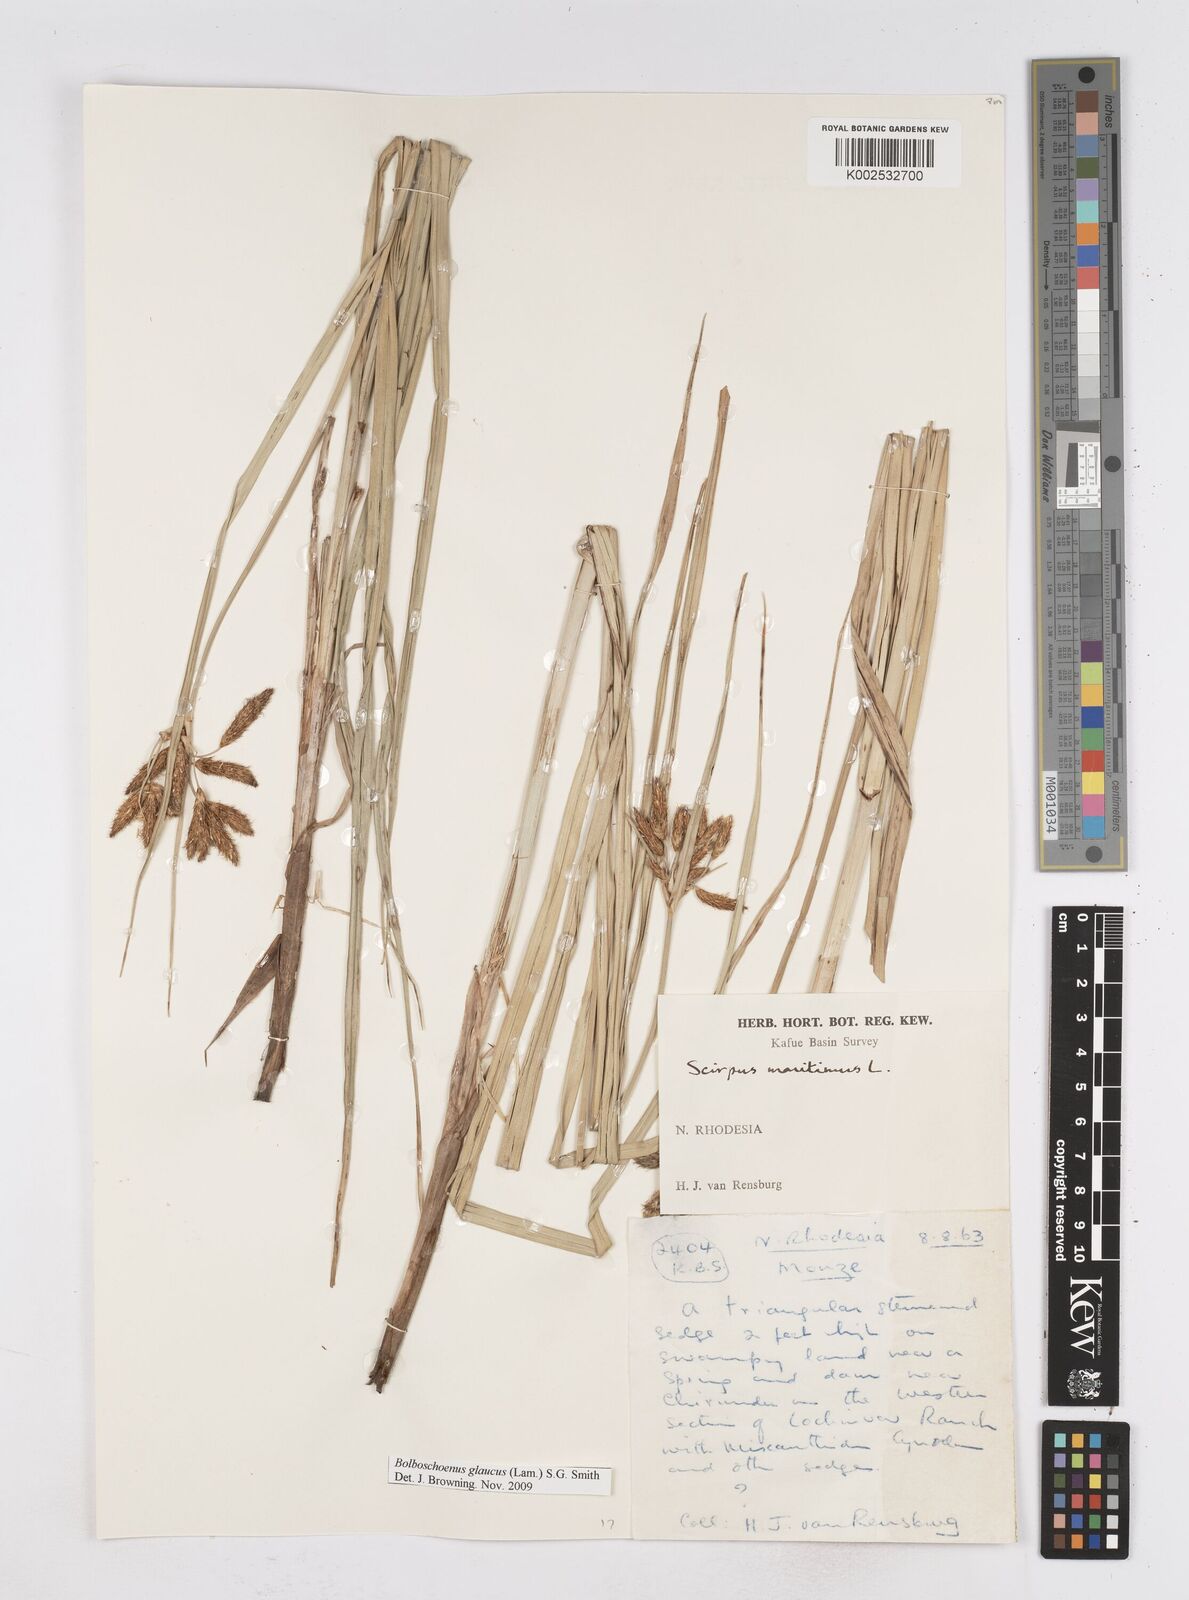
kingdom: Plantae
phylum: Tracheophyta
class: Liliopsida
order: Poales
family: Cyperaceae
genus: Bolboschoenus
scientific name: Bolboschoenus glaucus
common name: Tuberous bulrush
